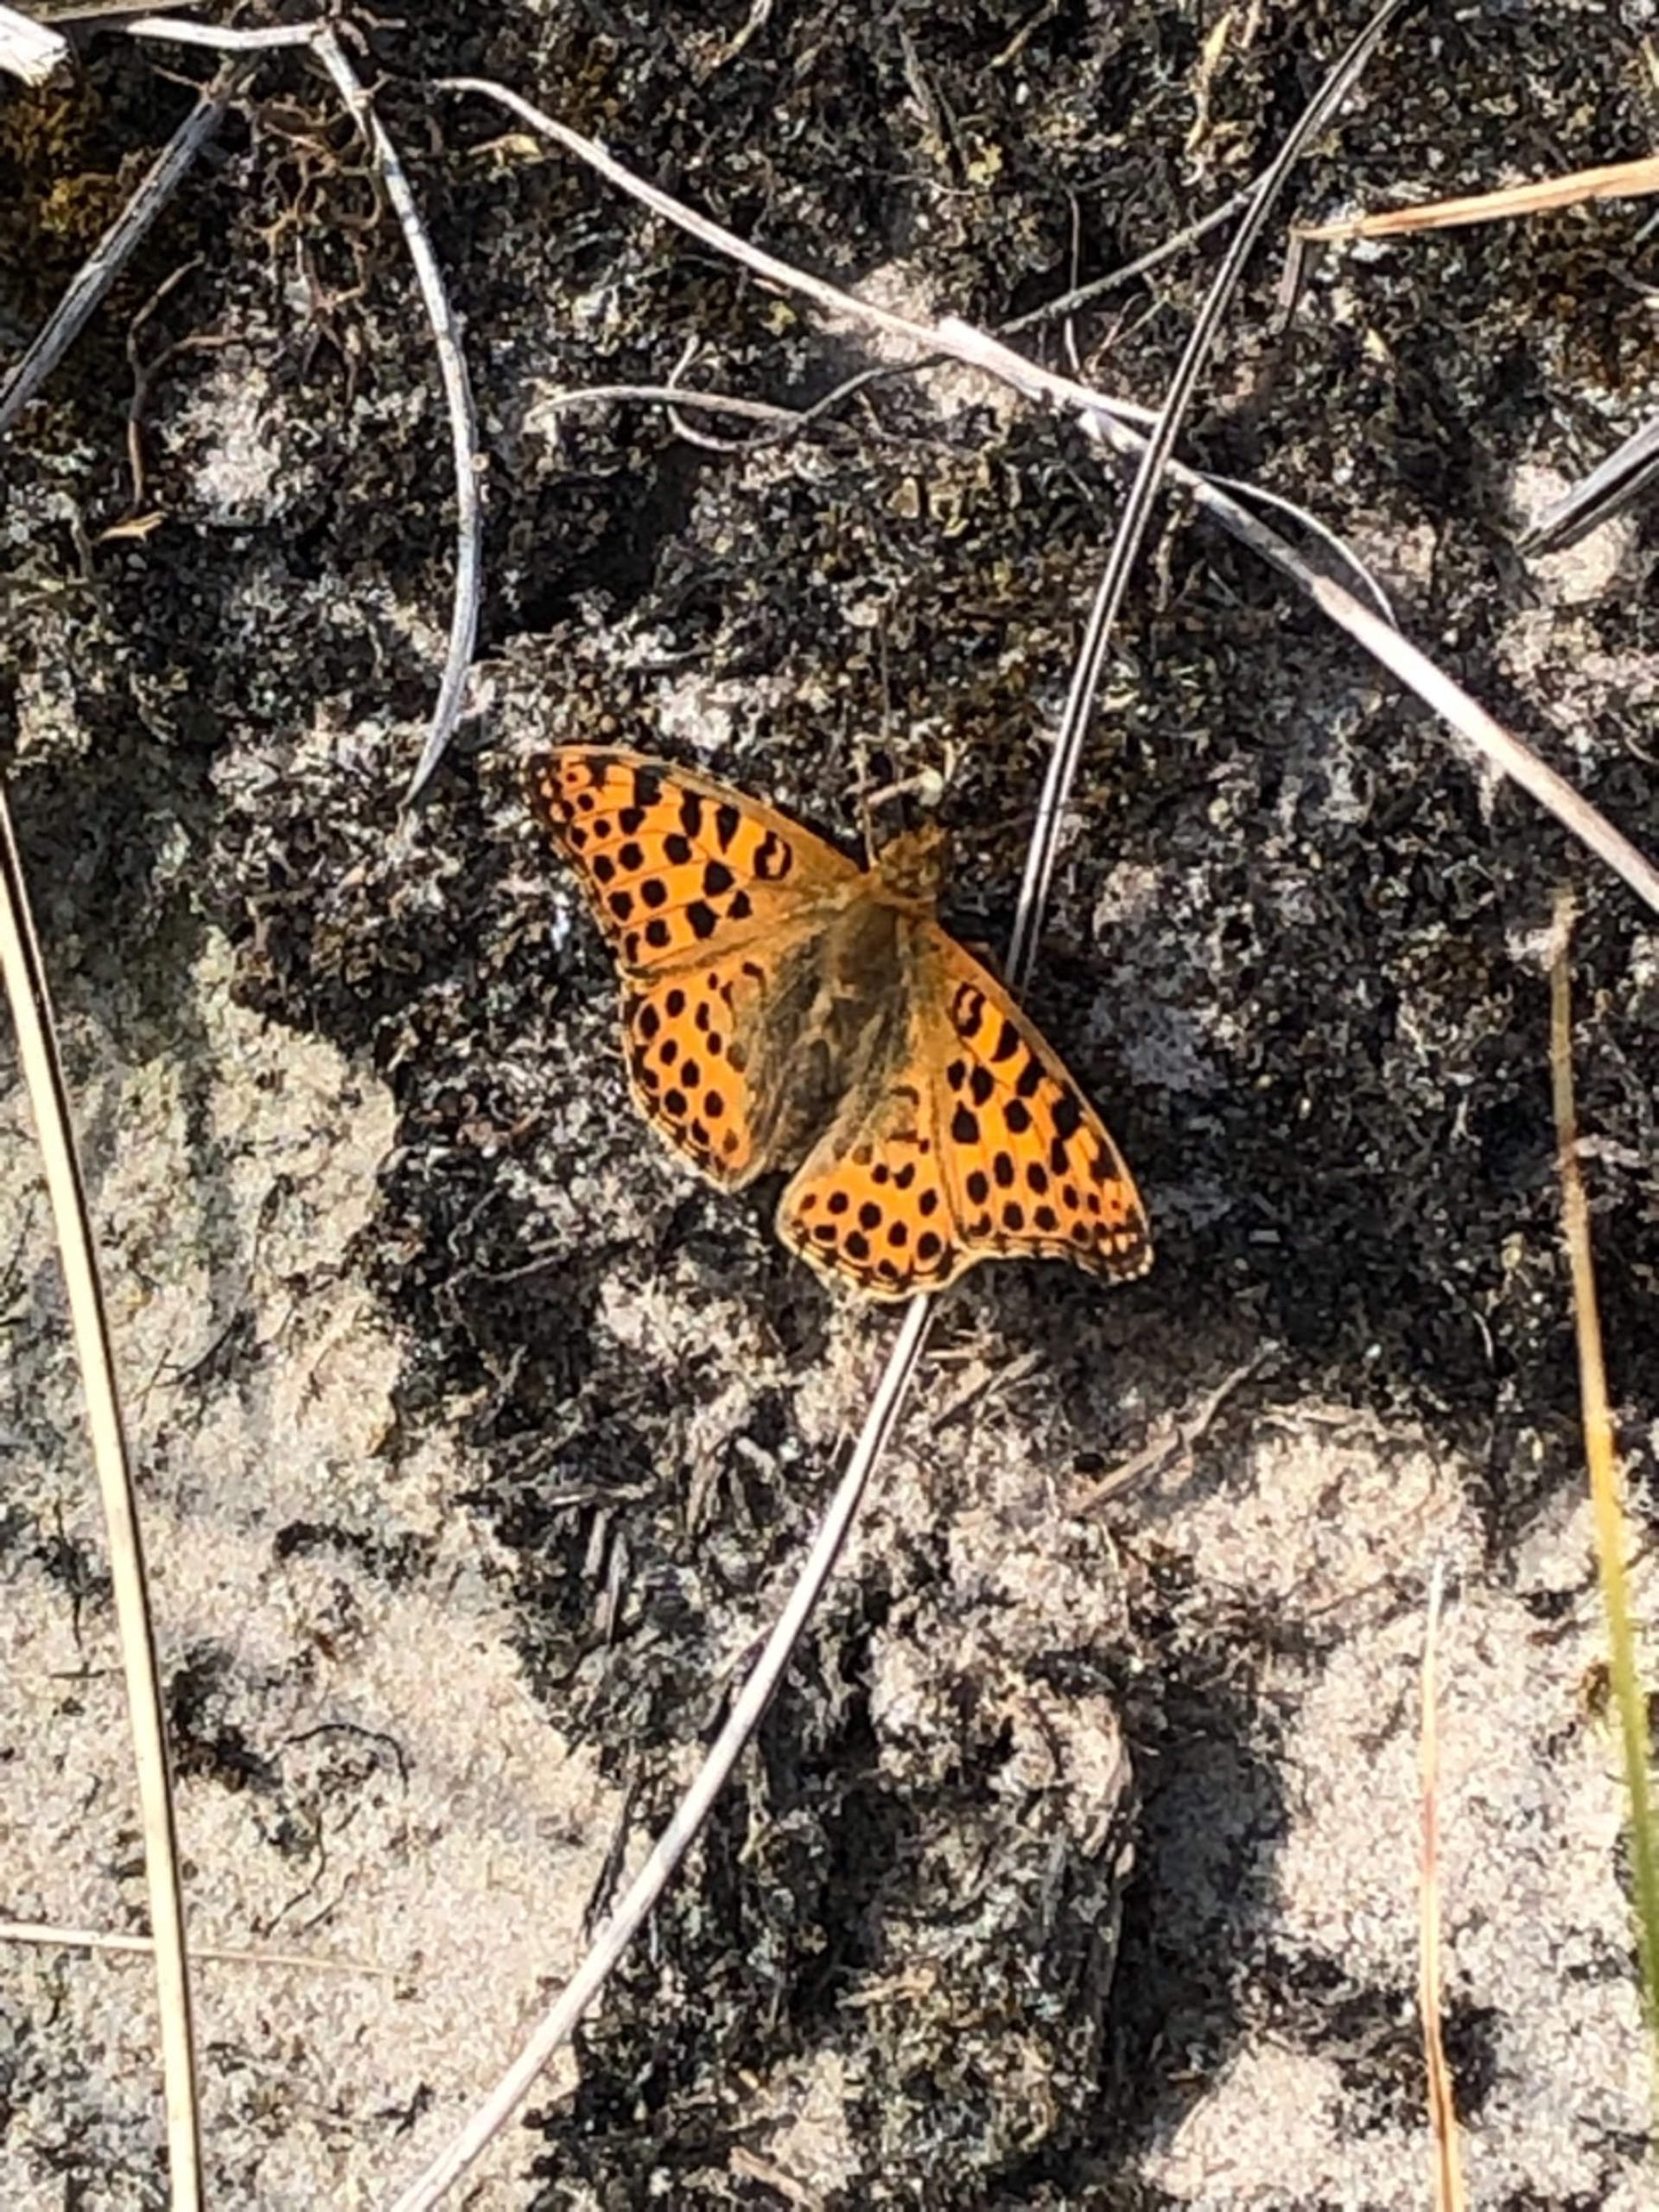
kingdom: Animalia
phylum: Arthropoda
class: Insecta
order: Lepidoptera
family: Nymphalidae
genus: Issoria
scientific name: Issoria lathonia
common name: Storplettet perlemorsommerfugl
